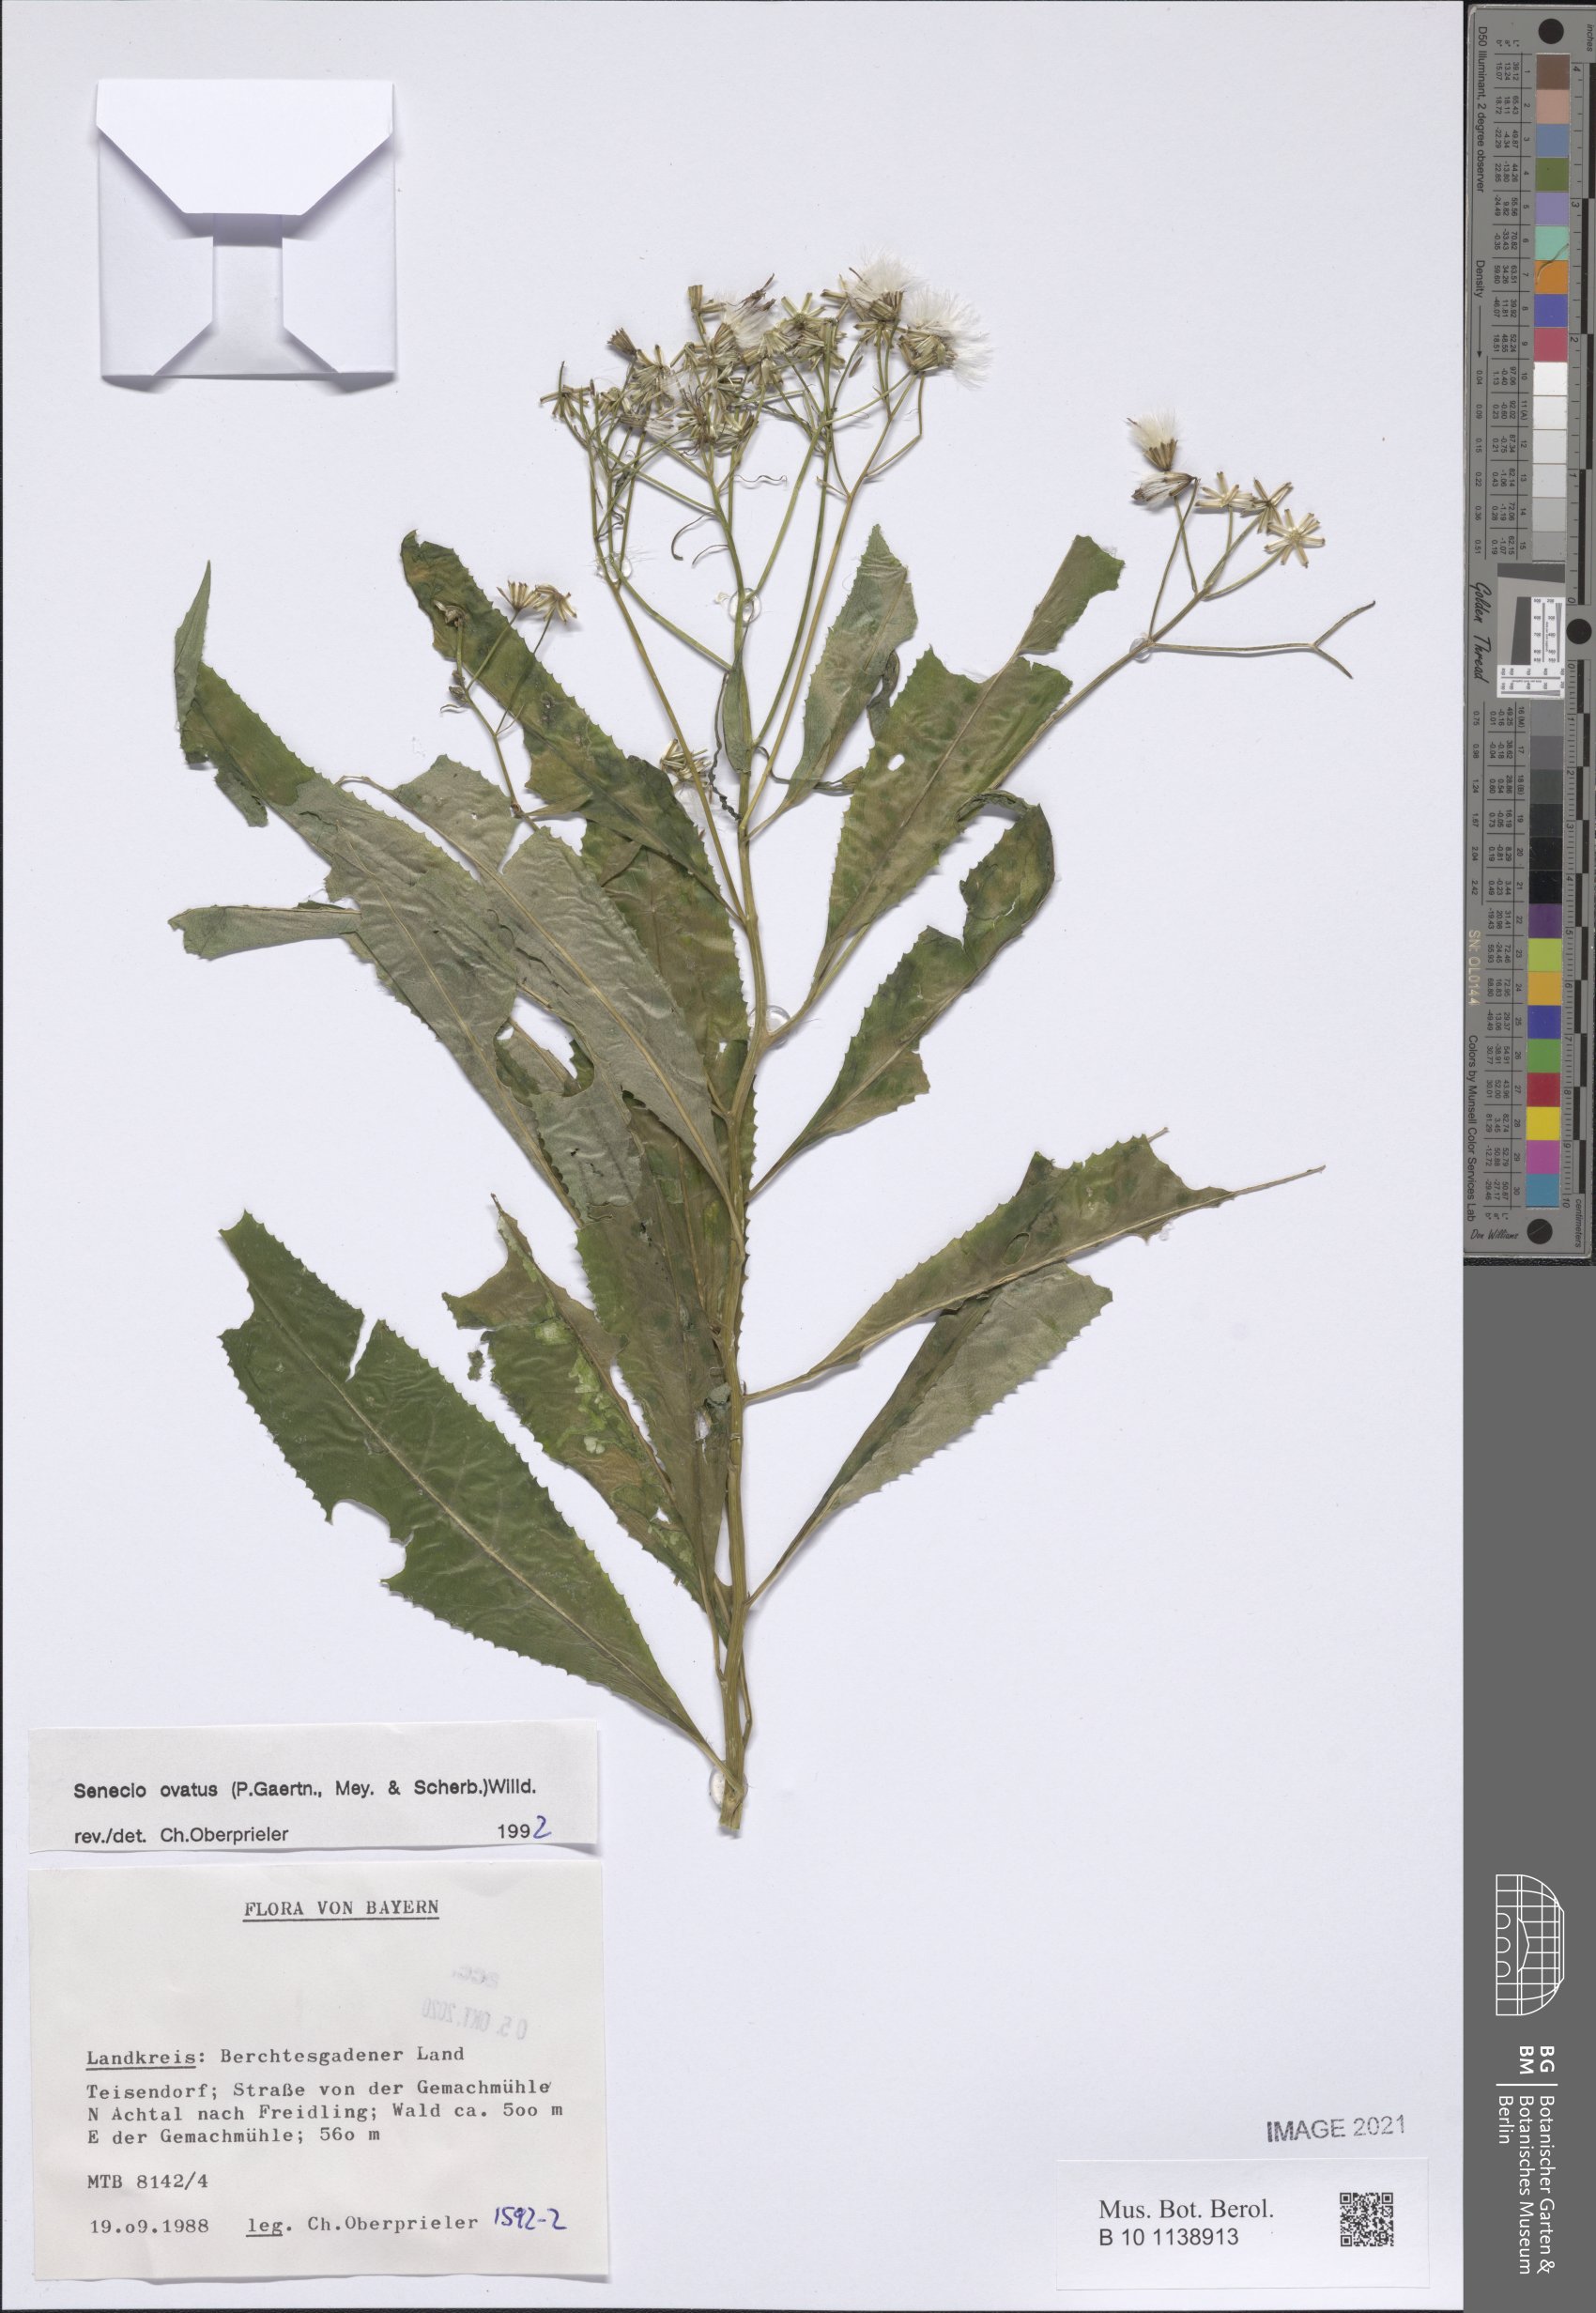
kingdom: Plantae
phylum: Tracheophyta
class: Magnoliopsida
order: Asterales
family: Asteraceae
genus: Senecio
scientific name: Senecio ovatus
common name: Wood ragwort
